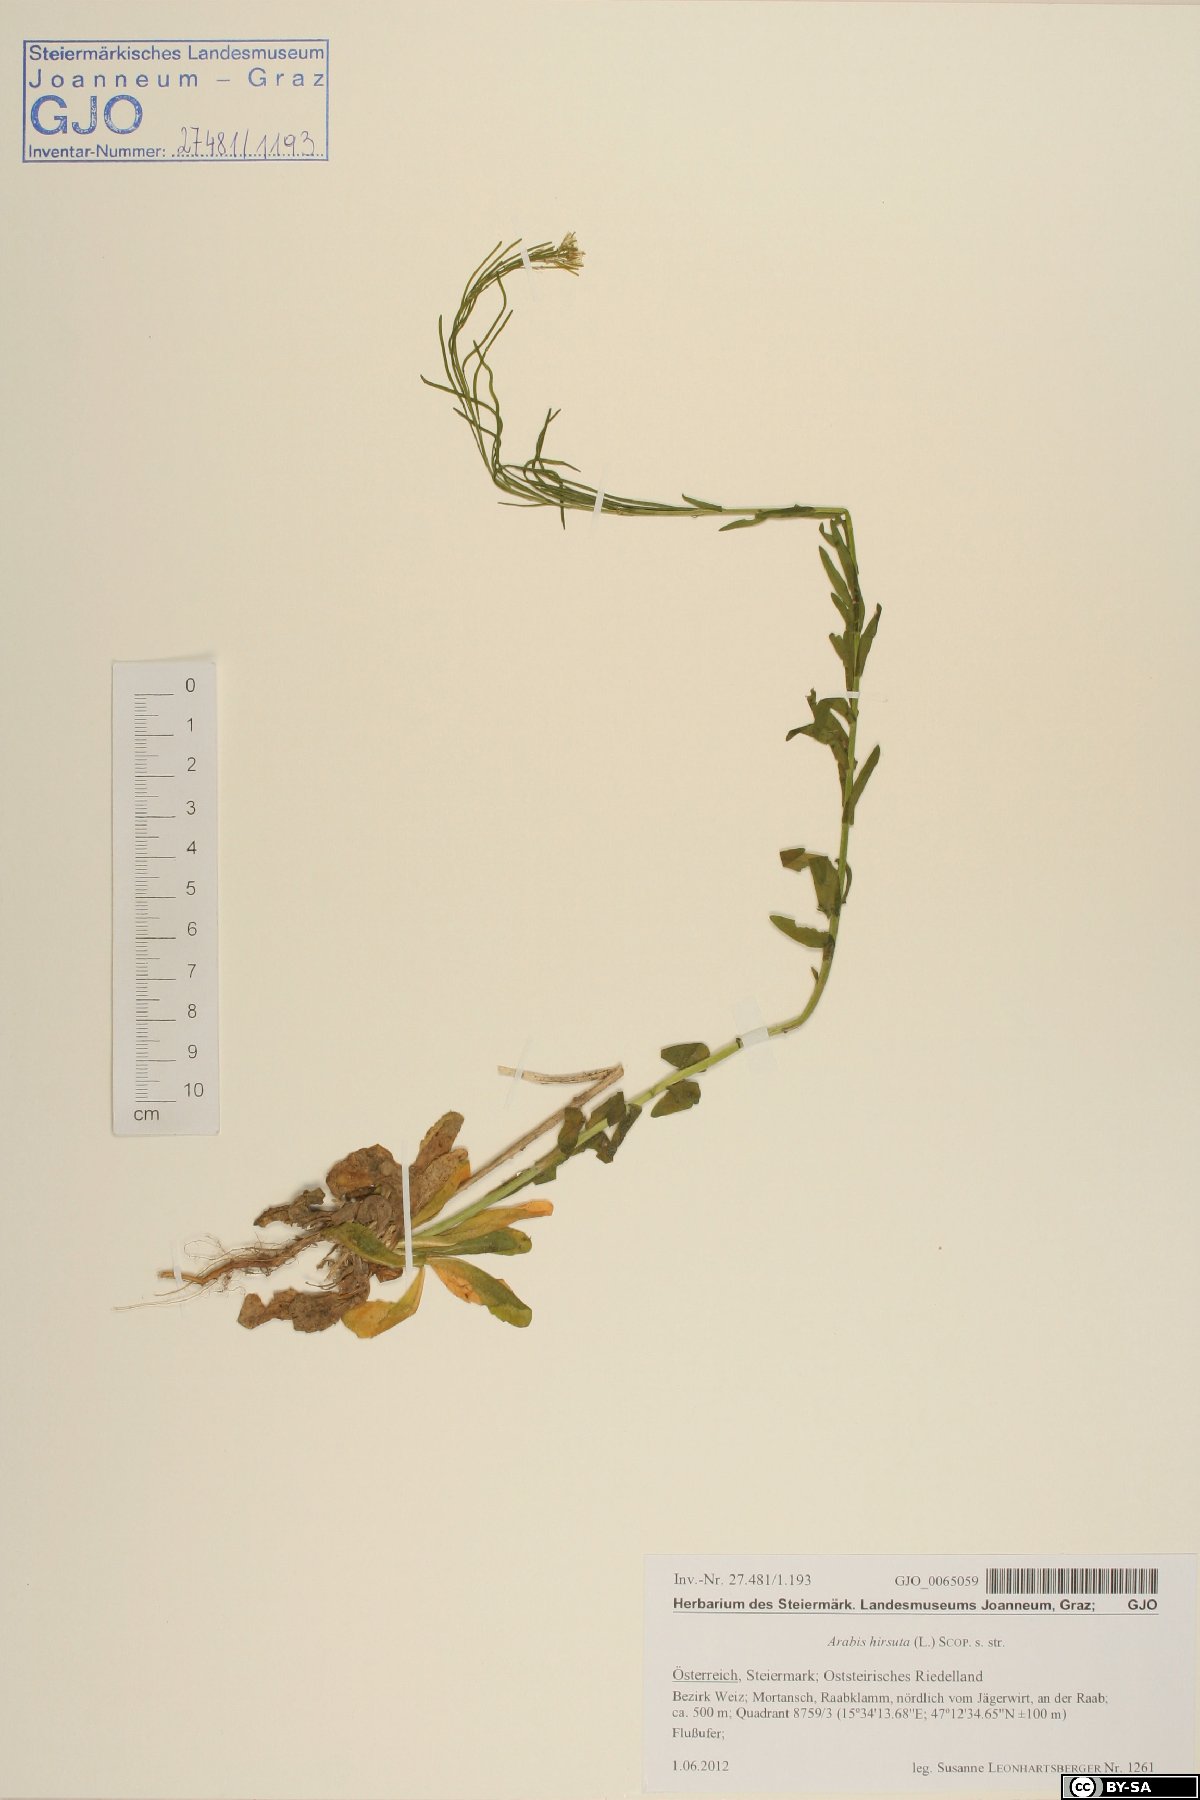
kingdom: Plantae
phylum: Tracheophyta
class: Magnoliopsida
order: Brassicales
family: Brassicaceae
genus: Arabis
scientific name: Arabis hirsuta
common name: Hairy rock-cress
